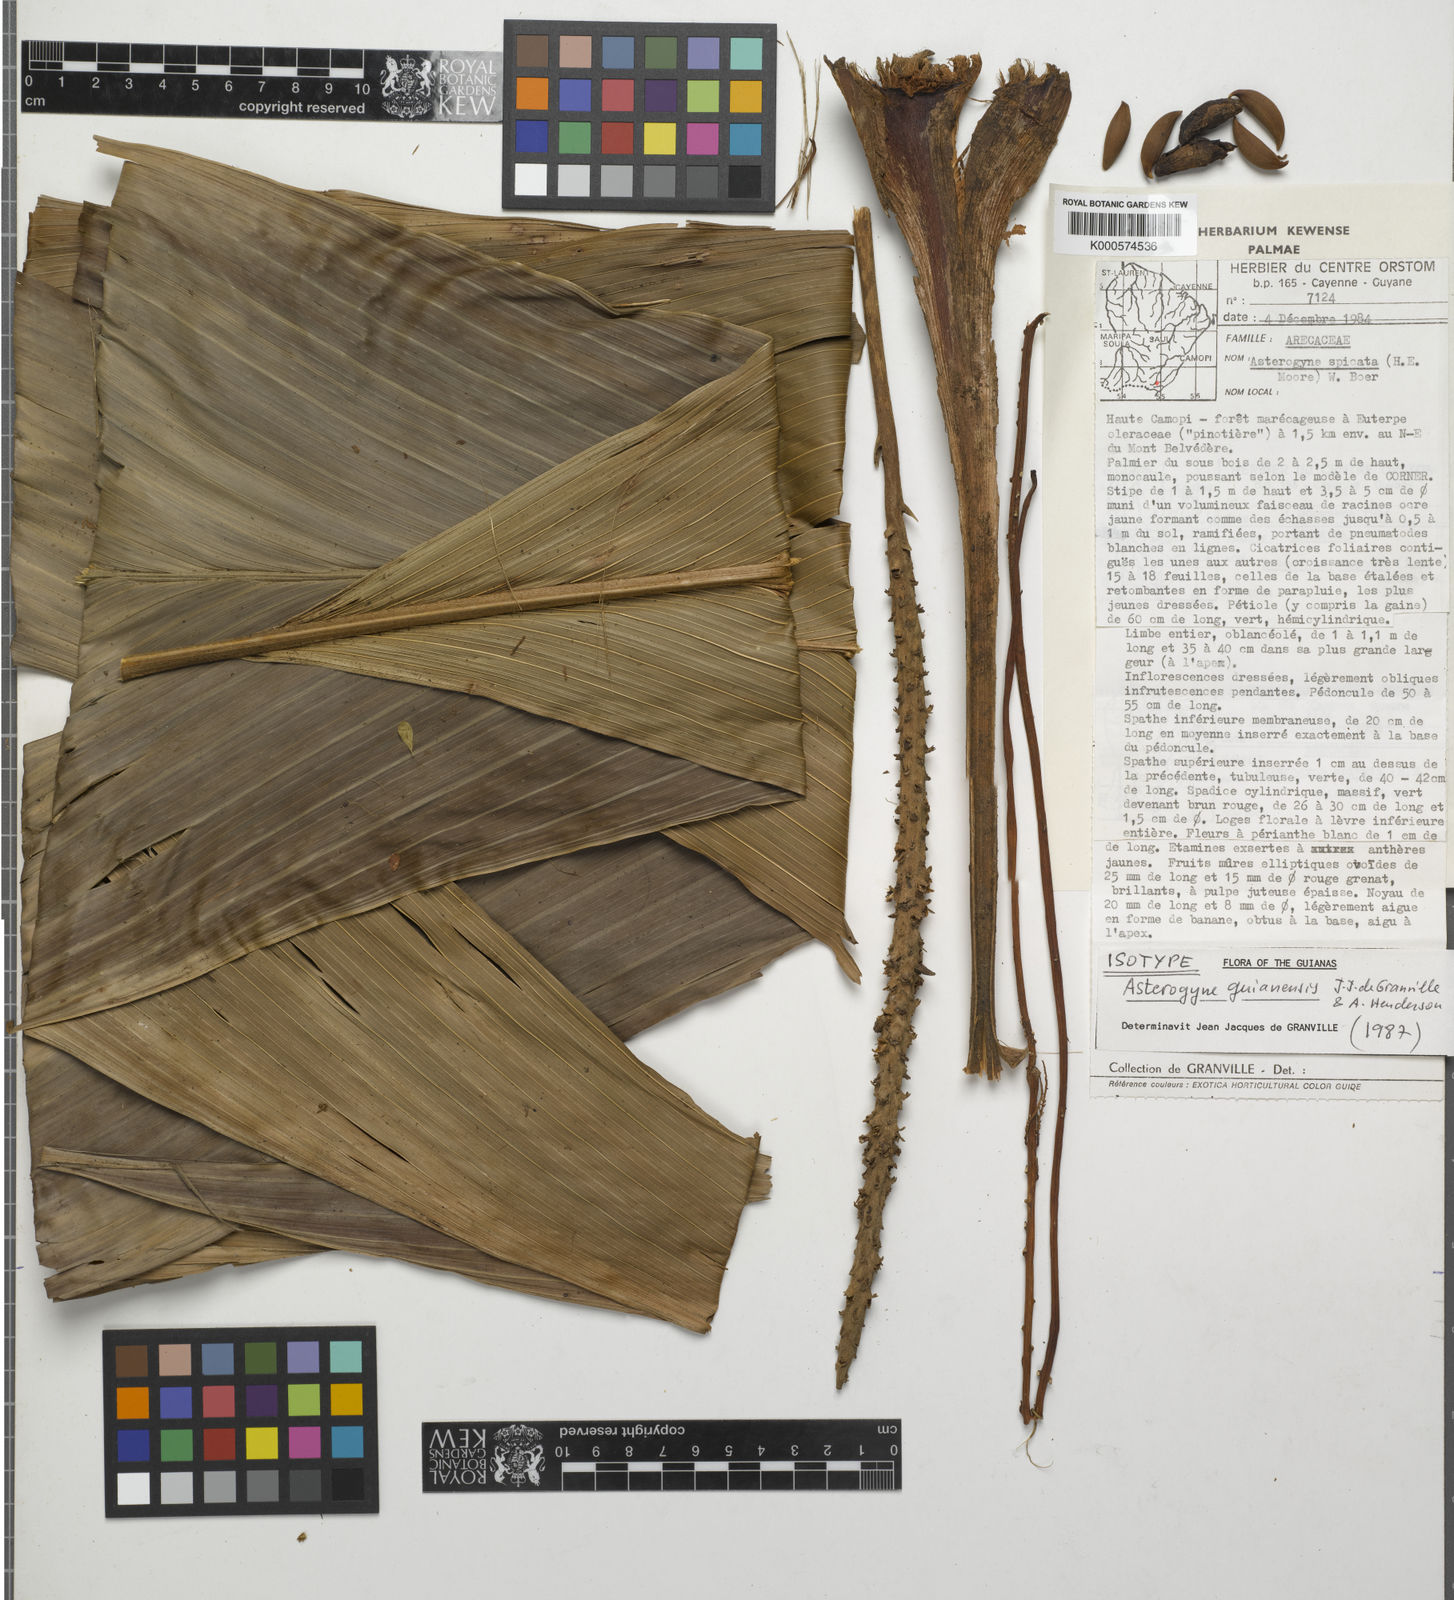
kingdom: Plantae
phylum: Tracheophyta
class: Liliopsida
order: Arecales
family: Arecaceae
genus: Asterogyne
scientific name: Asterogyne guianensis
